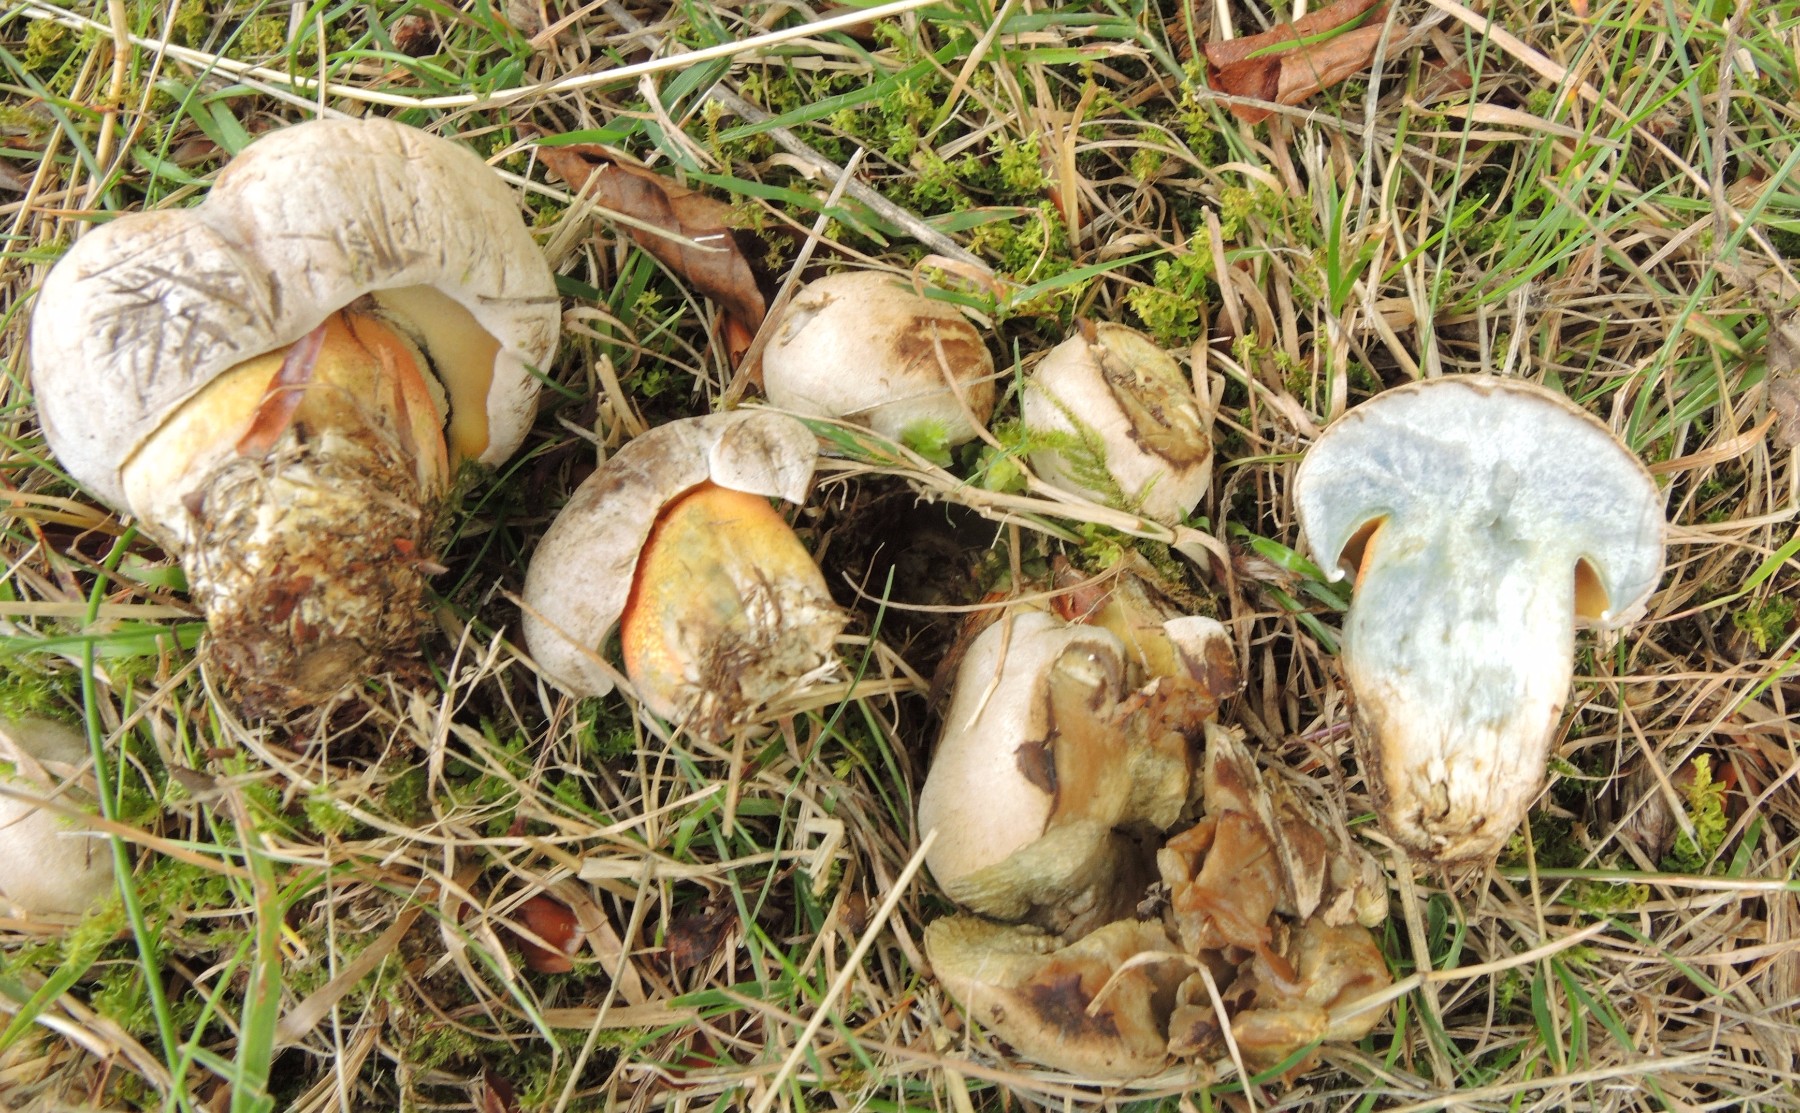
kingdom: Fungi
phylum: Basidiomycota
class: Agaricomycetes
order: Boletales
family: Boletaceae
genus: Caloboletus
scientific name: Caloboletus calopus
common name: skønfodet rørhat
